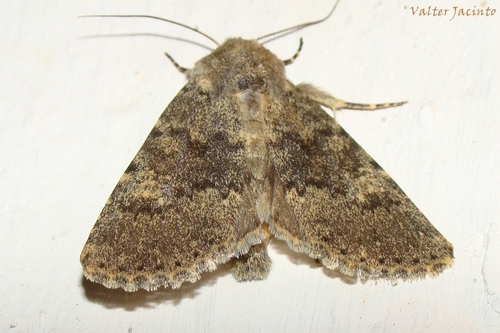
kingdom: Animalia
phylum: Arthropoda
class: Insecta
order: Lepidoptera
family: Noctuidae
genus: Polymixis
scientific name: Polymixis dubia
